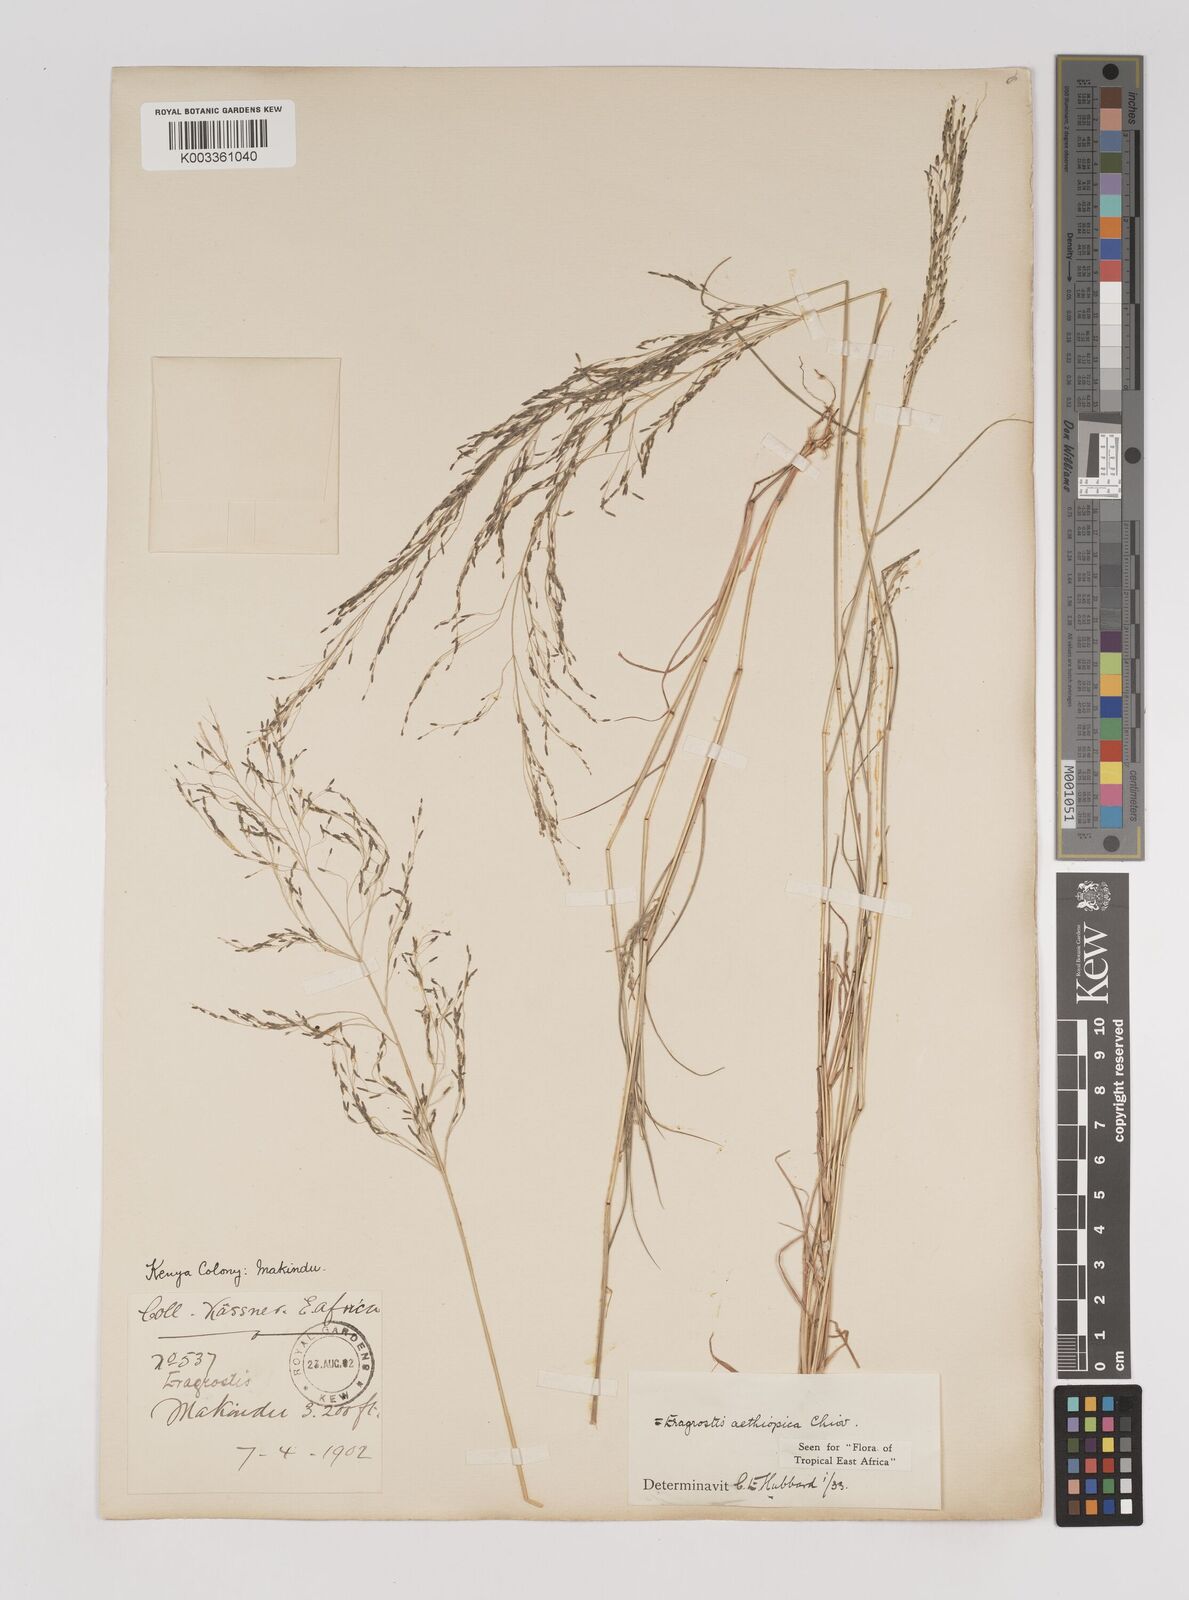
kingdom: Plantae
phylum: Tracheophyta
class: Liliopsida
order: Poales
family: Poaceae
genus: Eragrostis
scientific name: Eragrostis aethiopica
